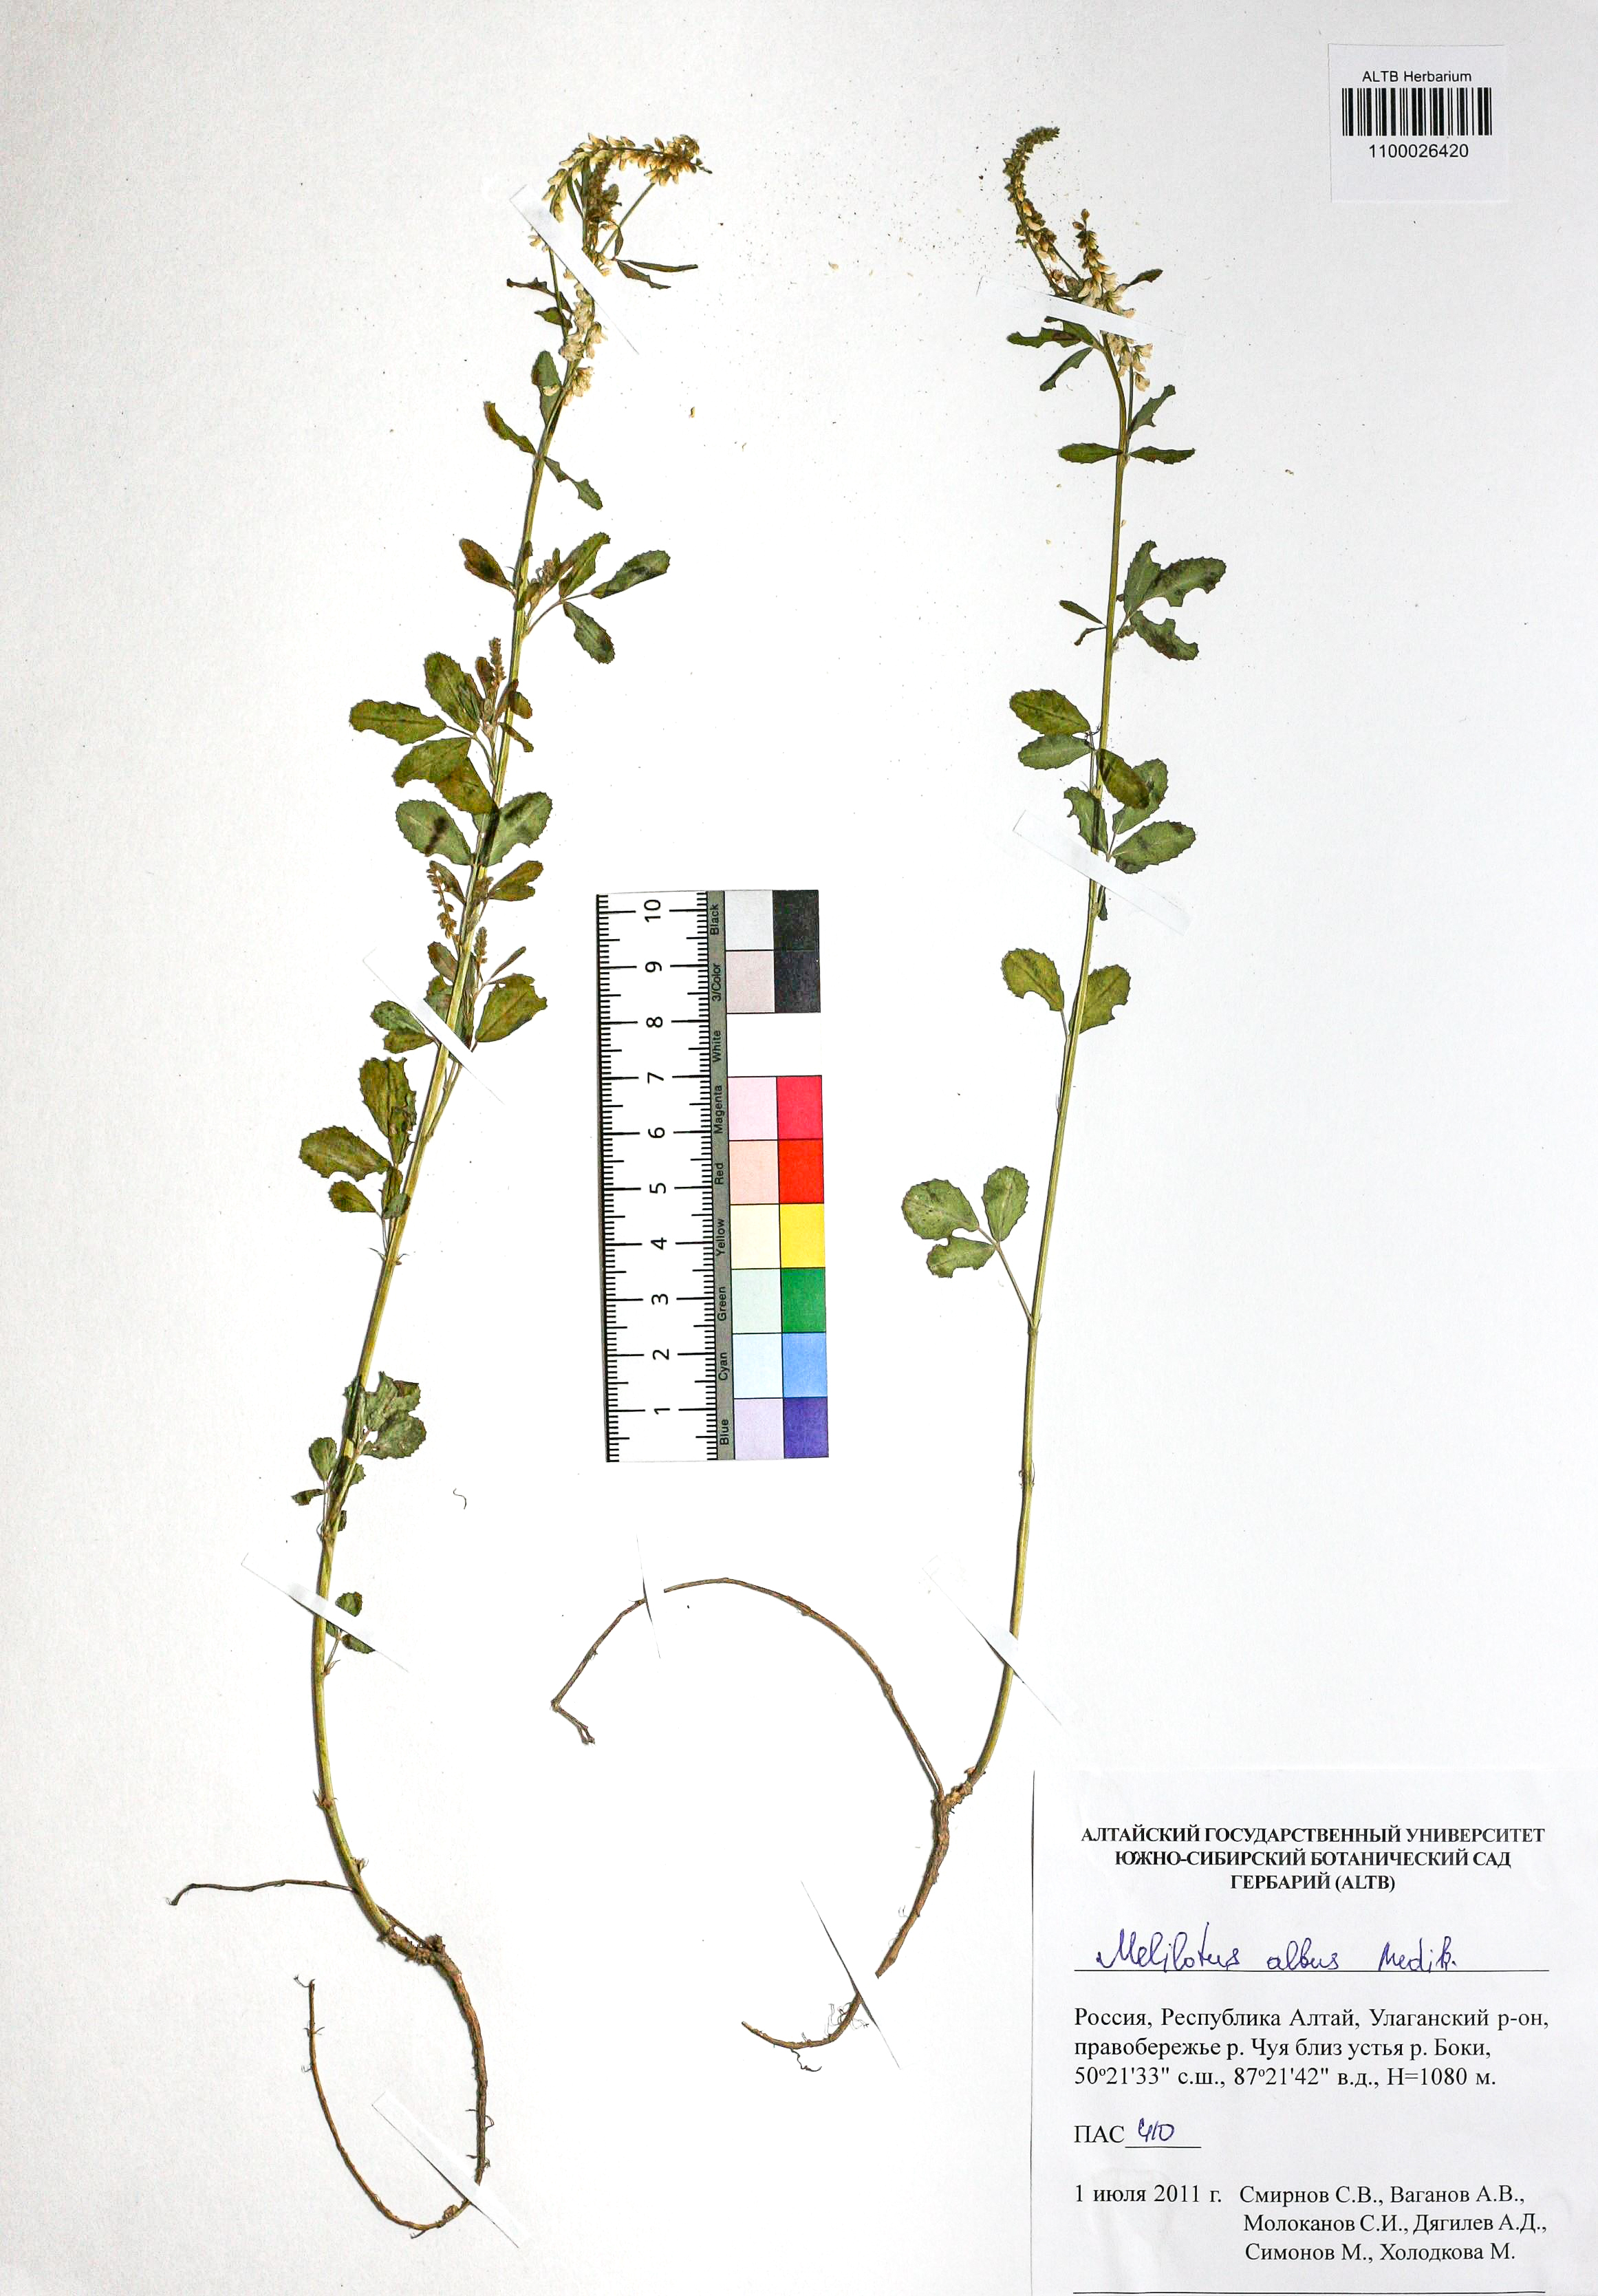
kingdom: Plantae
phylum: Tracheophyta
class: Magnoliopsida
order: Fabales
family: Fabaceae
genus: Melilotus
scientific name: Melilotus albus
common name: White melilot
